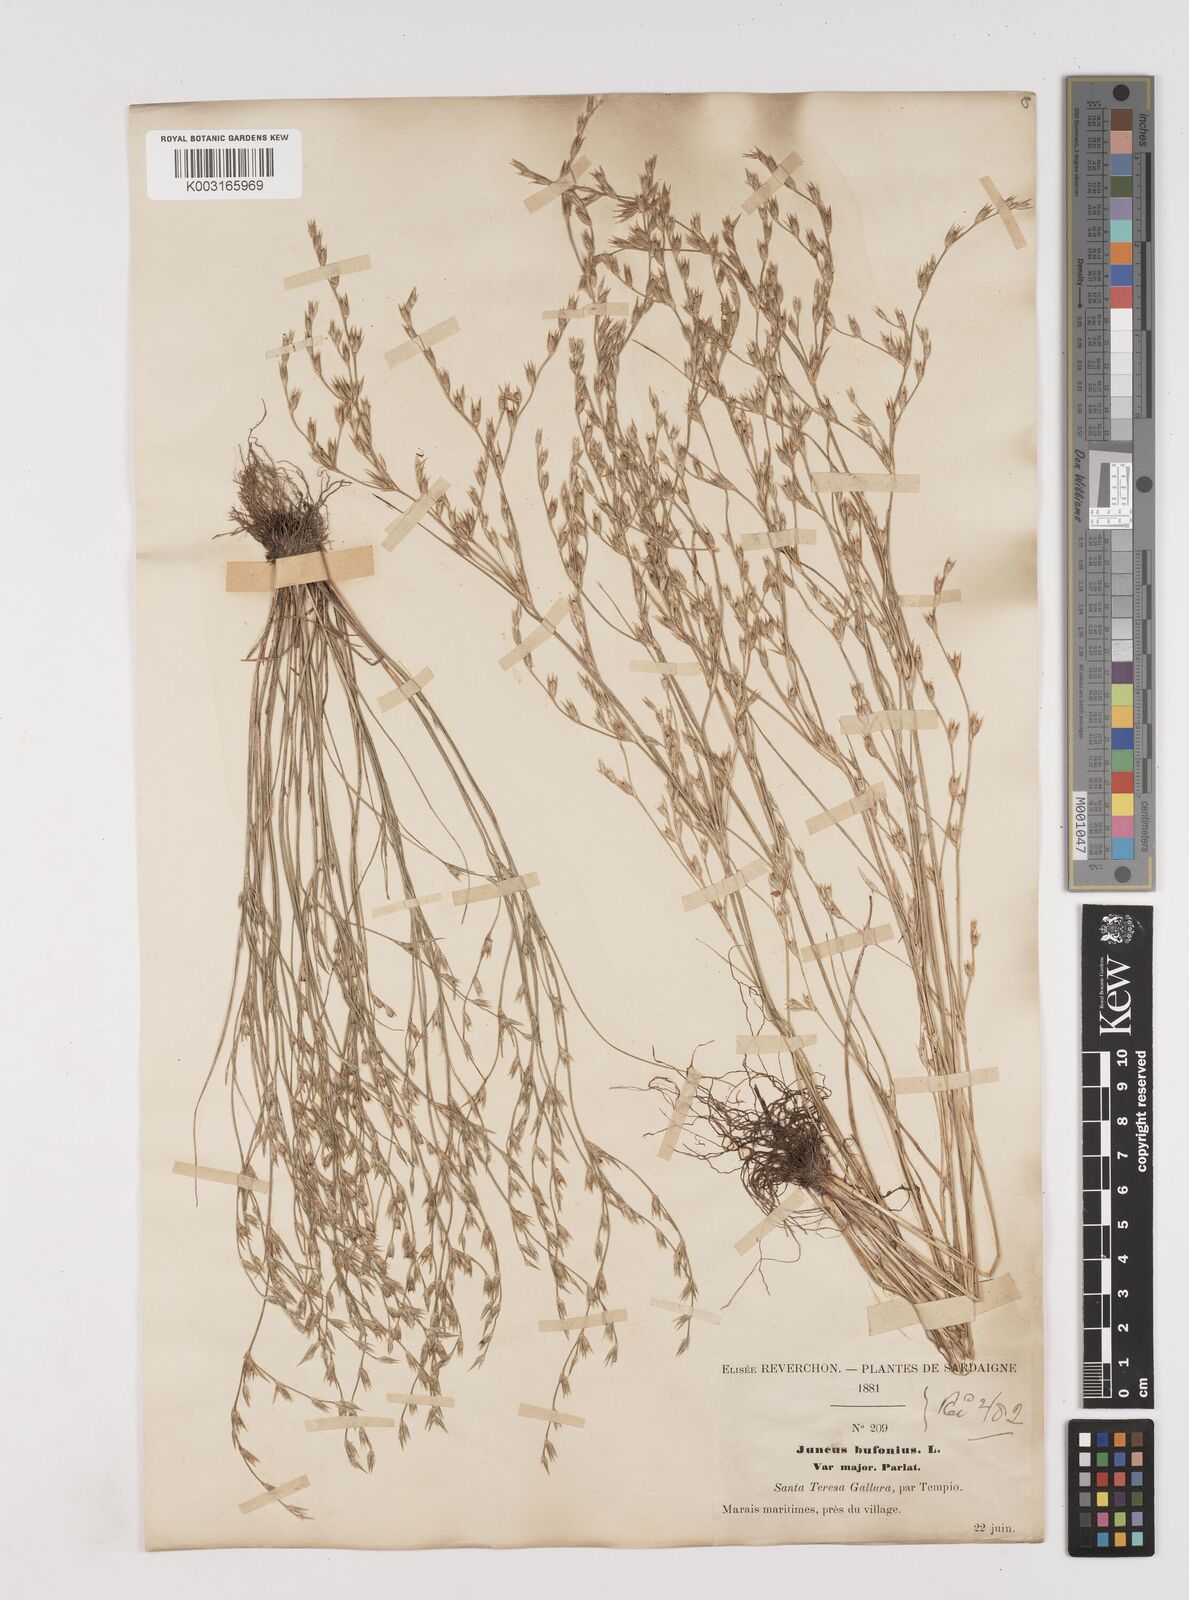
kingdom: Plantae
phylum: Tracheophyta
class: Liliopsida
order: Poales
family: Juncaceae
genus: Juncus
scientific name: Juncus bufonius
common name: Toad rush
